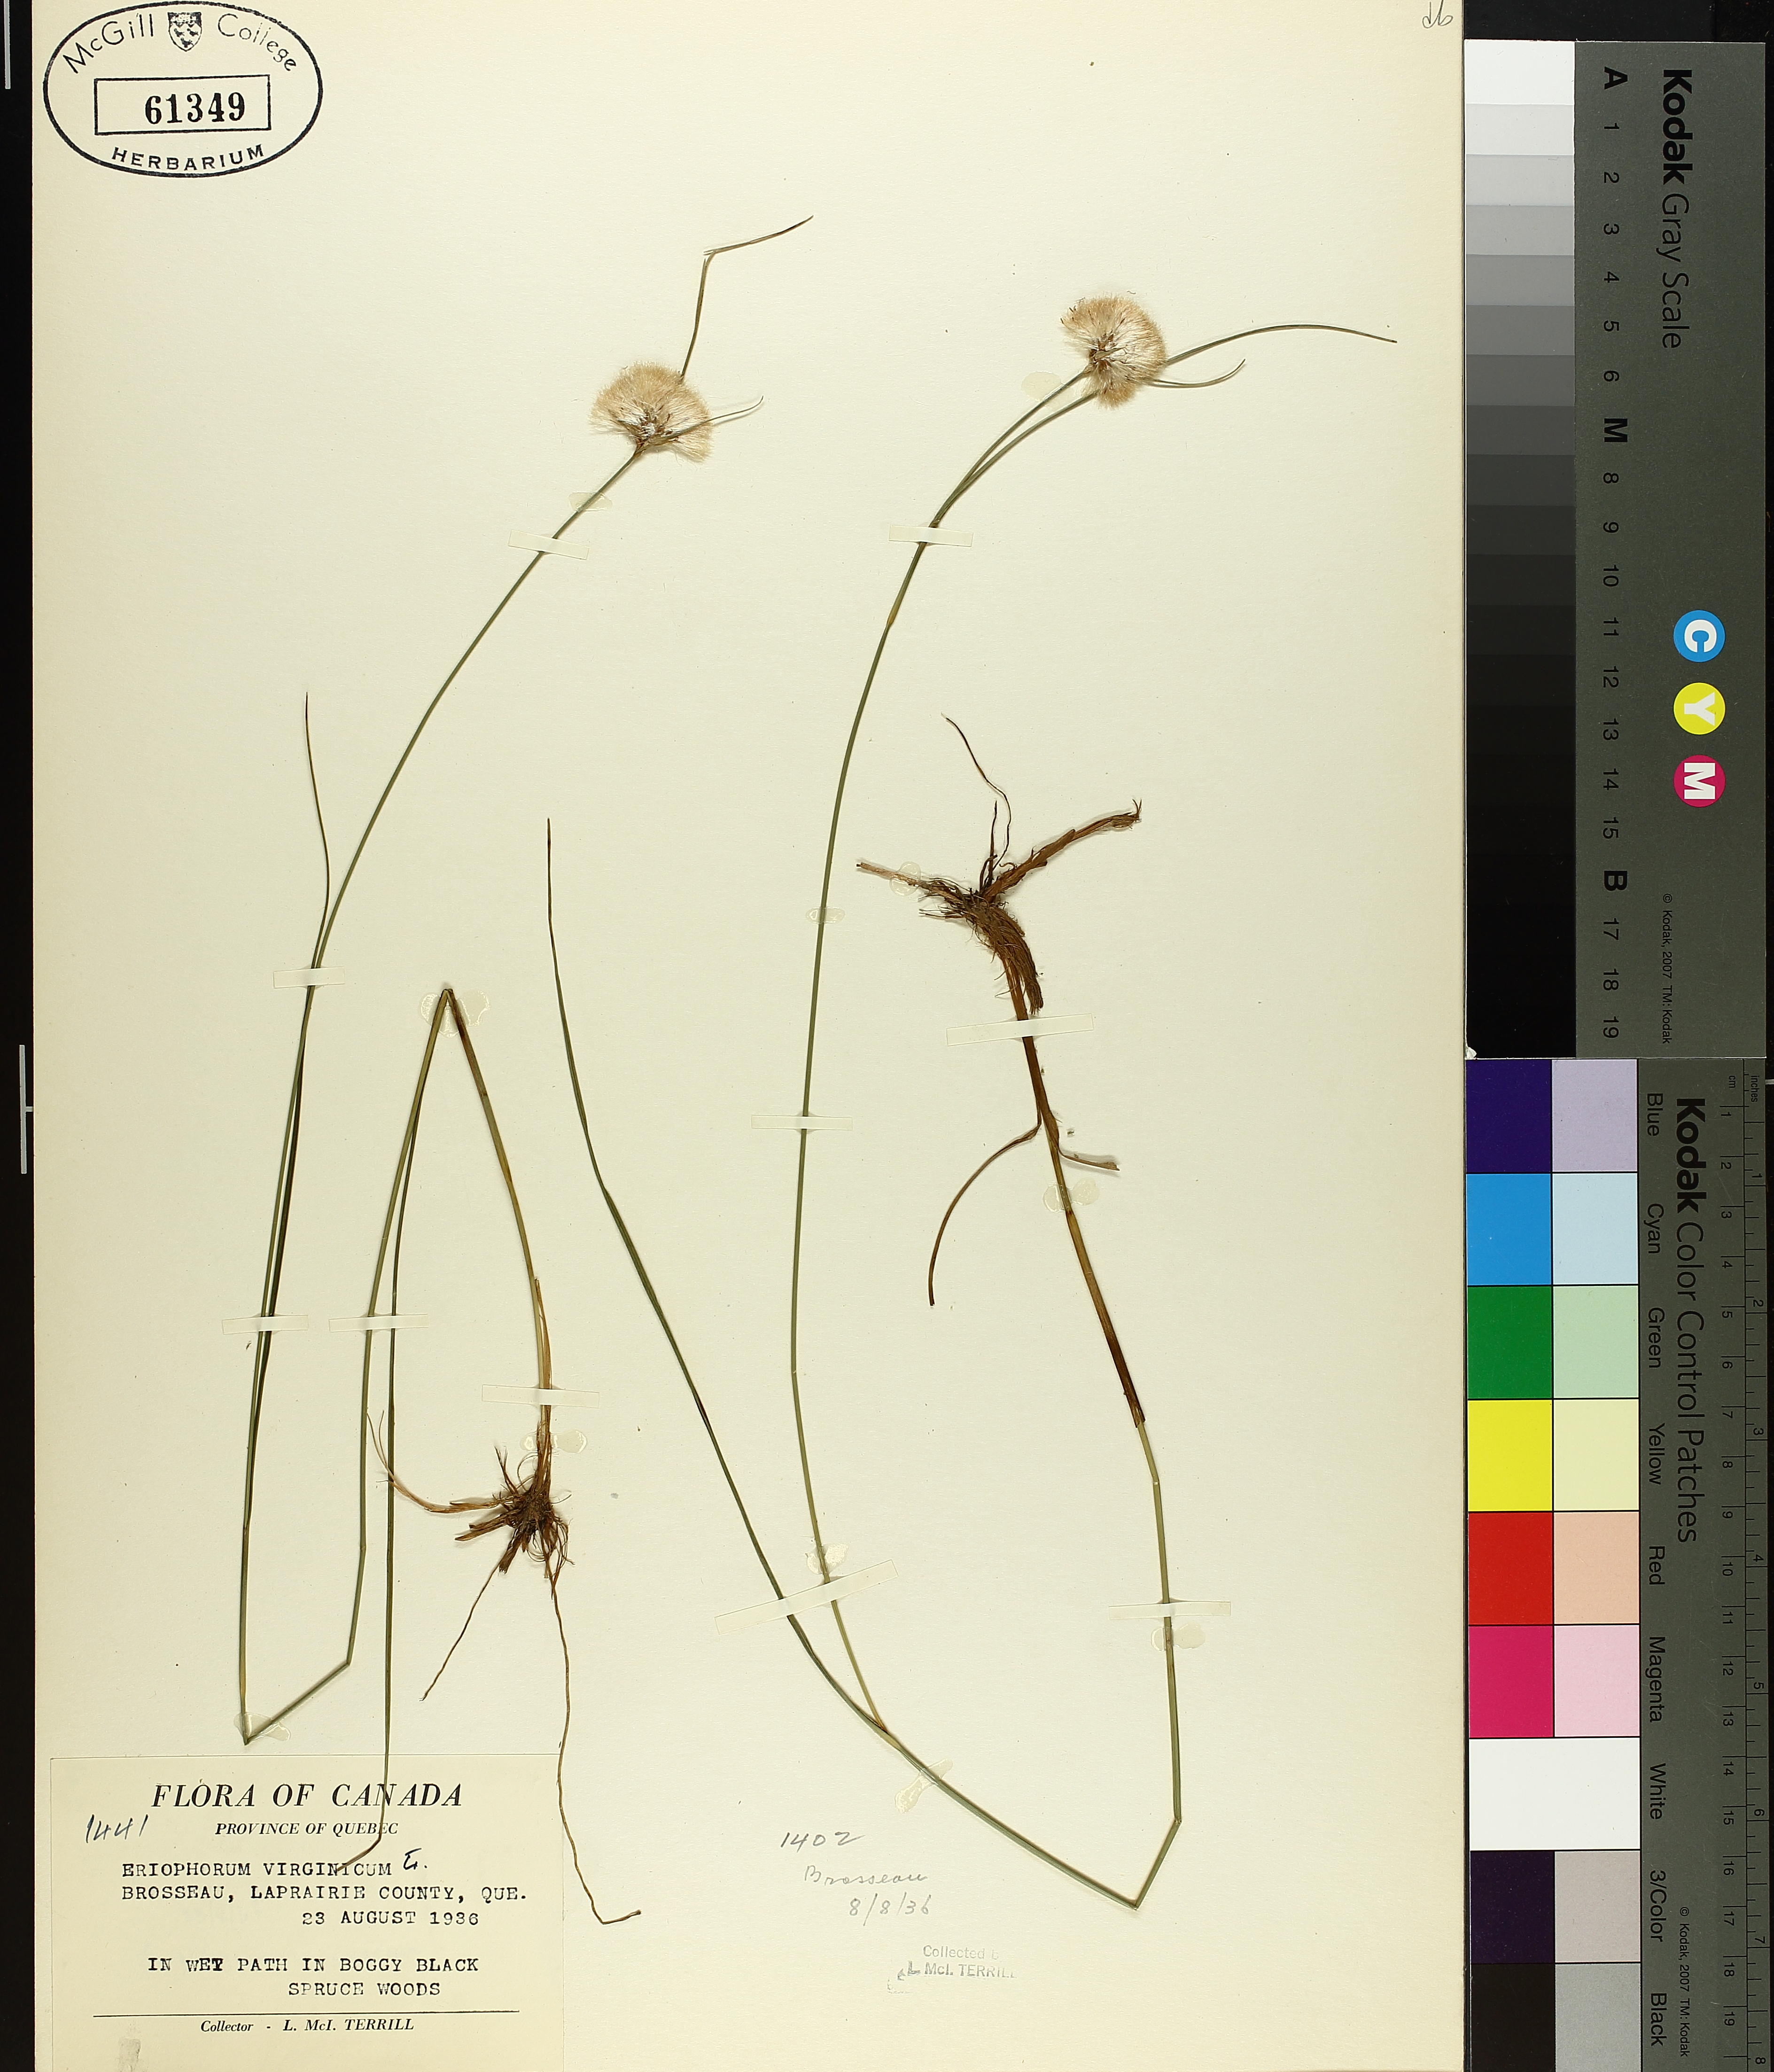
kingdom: Plantae
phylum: Tracheophyta
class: Liliopsida
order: Poales
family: Cyperaceae
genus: Eriophorum
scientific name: Eriophorum virginicum
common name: Tawny cottongrass
